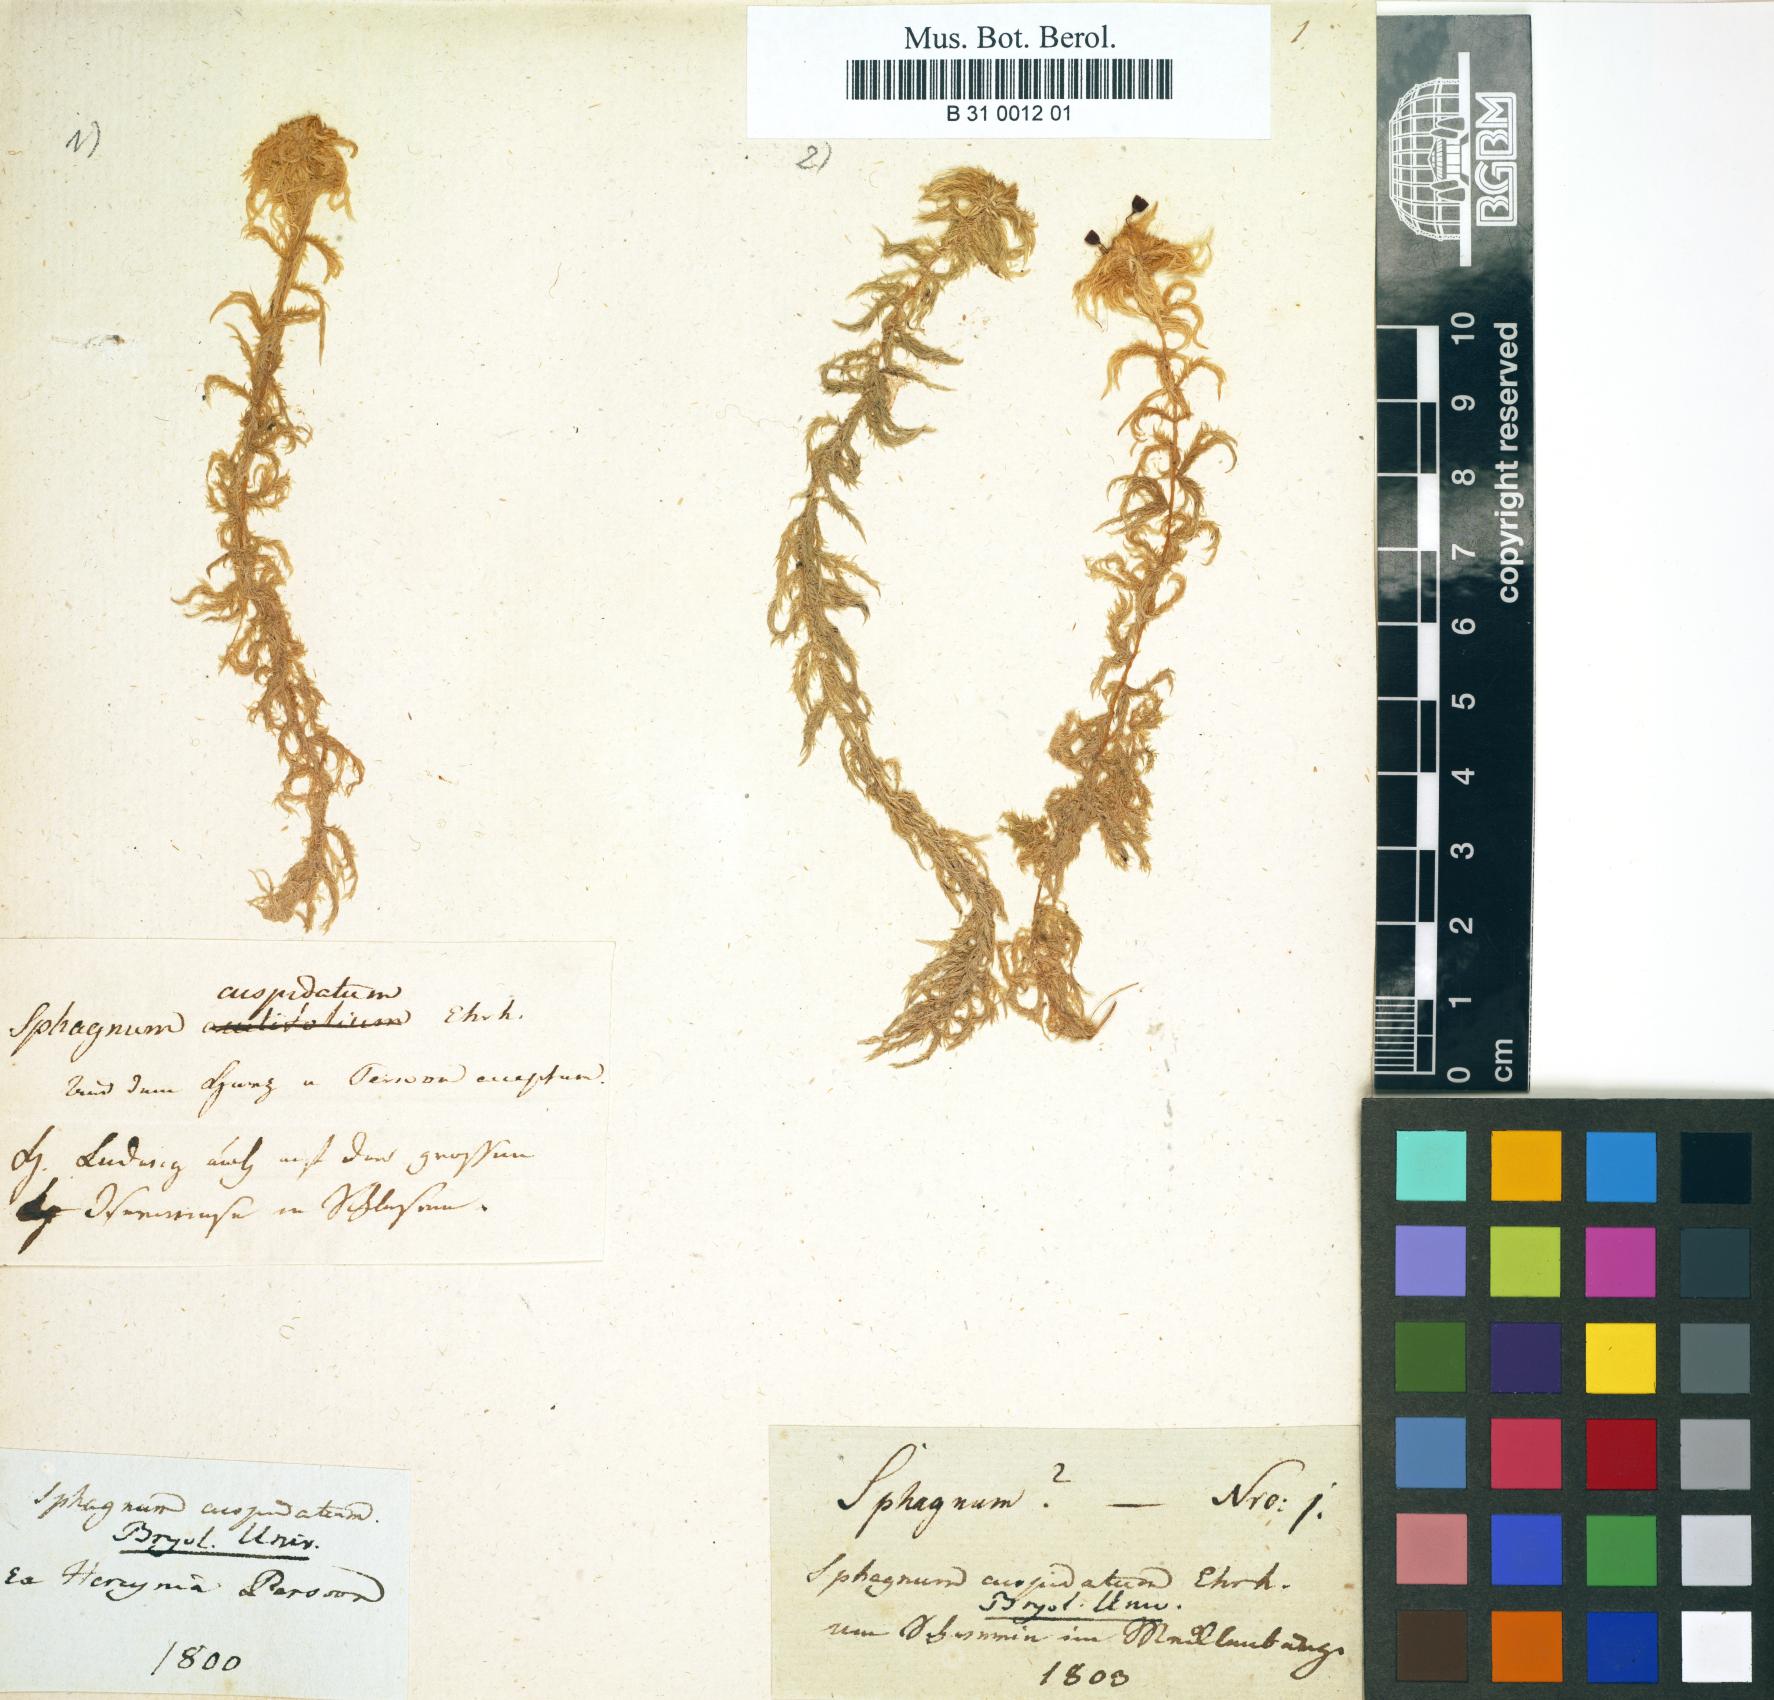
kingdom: Plantae
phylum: Bryophyta
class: Sphagnopsida
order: Sphagnales
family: Sphagnaceae
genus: Sphagnum
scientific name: Sphagnum cuspidatum
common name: Feathery peat moss
